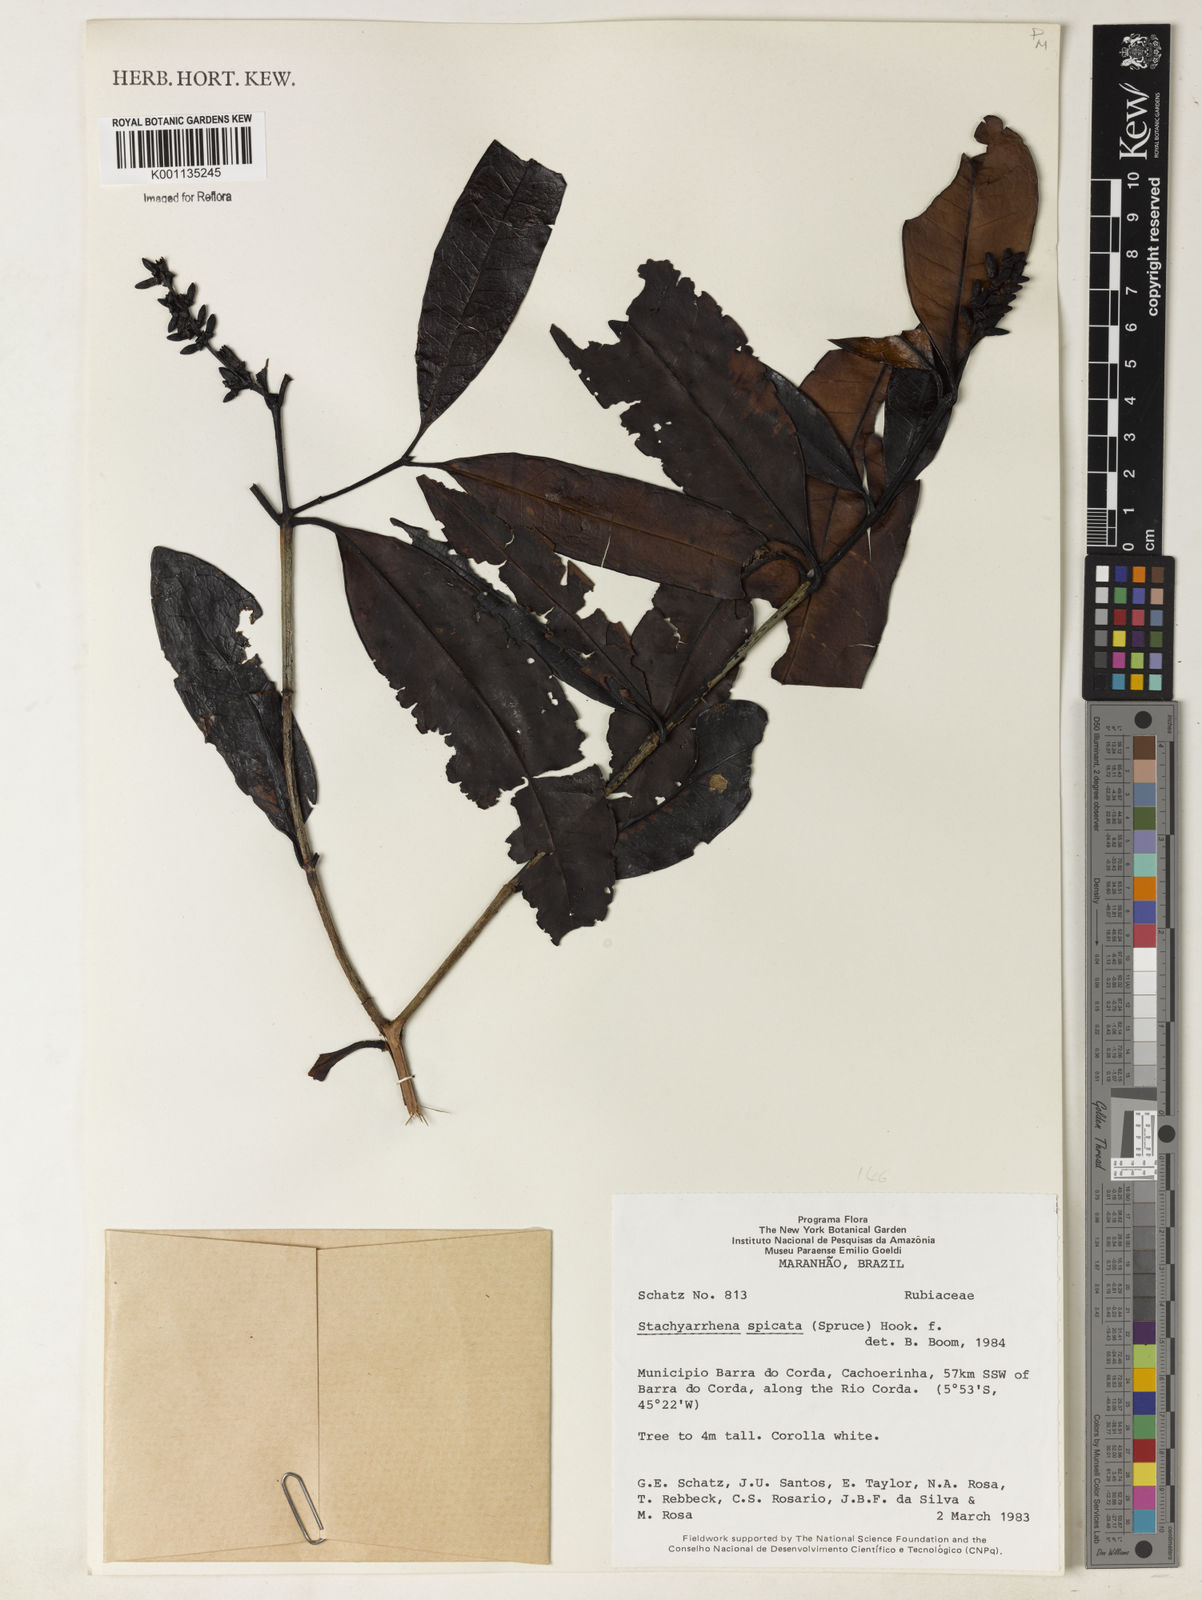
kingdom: Plantae
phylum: Tracheophyta
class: Magnoliopsida
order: Gentianales
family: Rubiaceae
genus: Stachyarrhena
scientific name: Stachyarrhena
